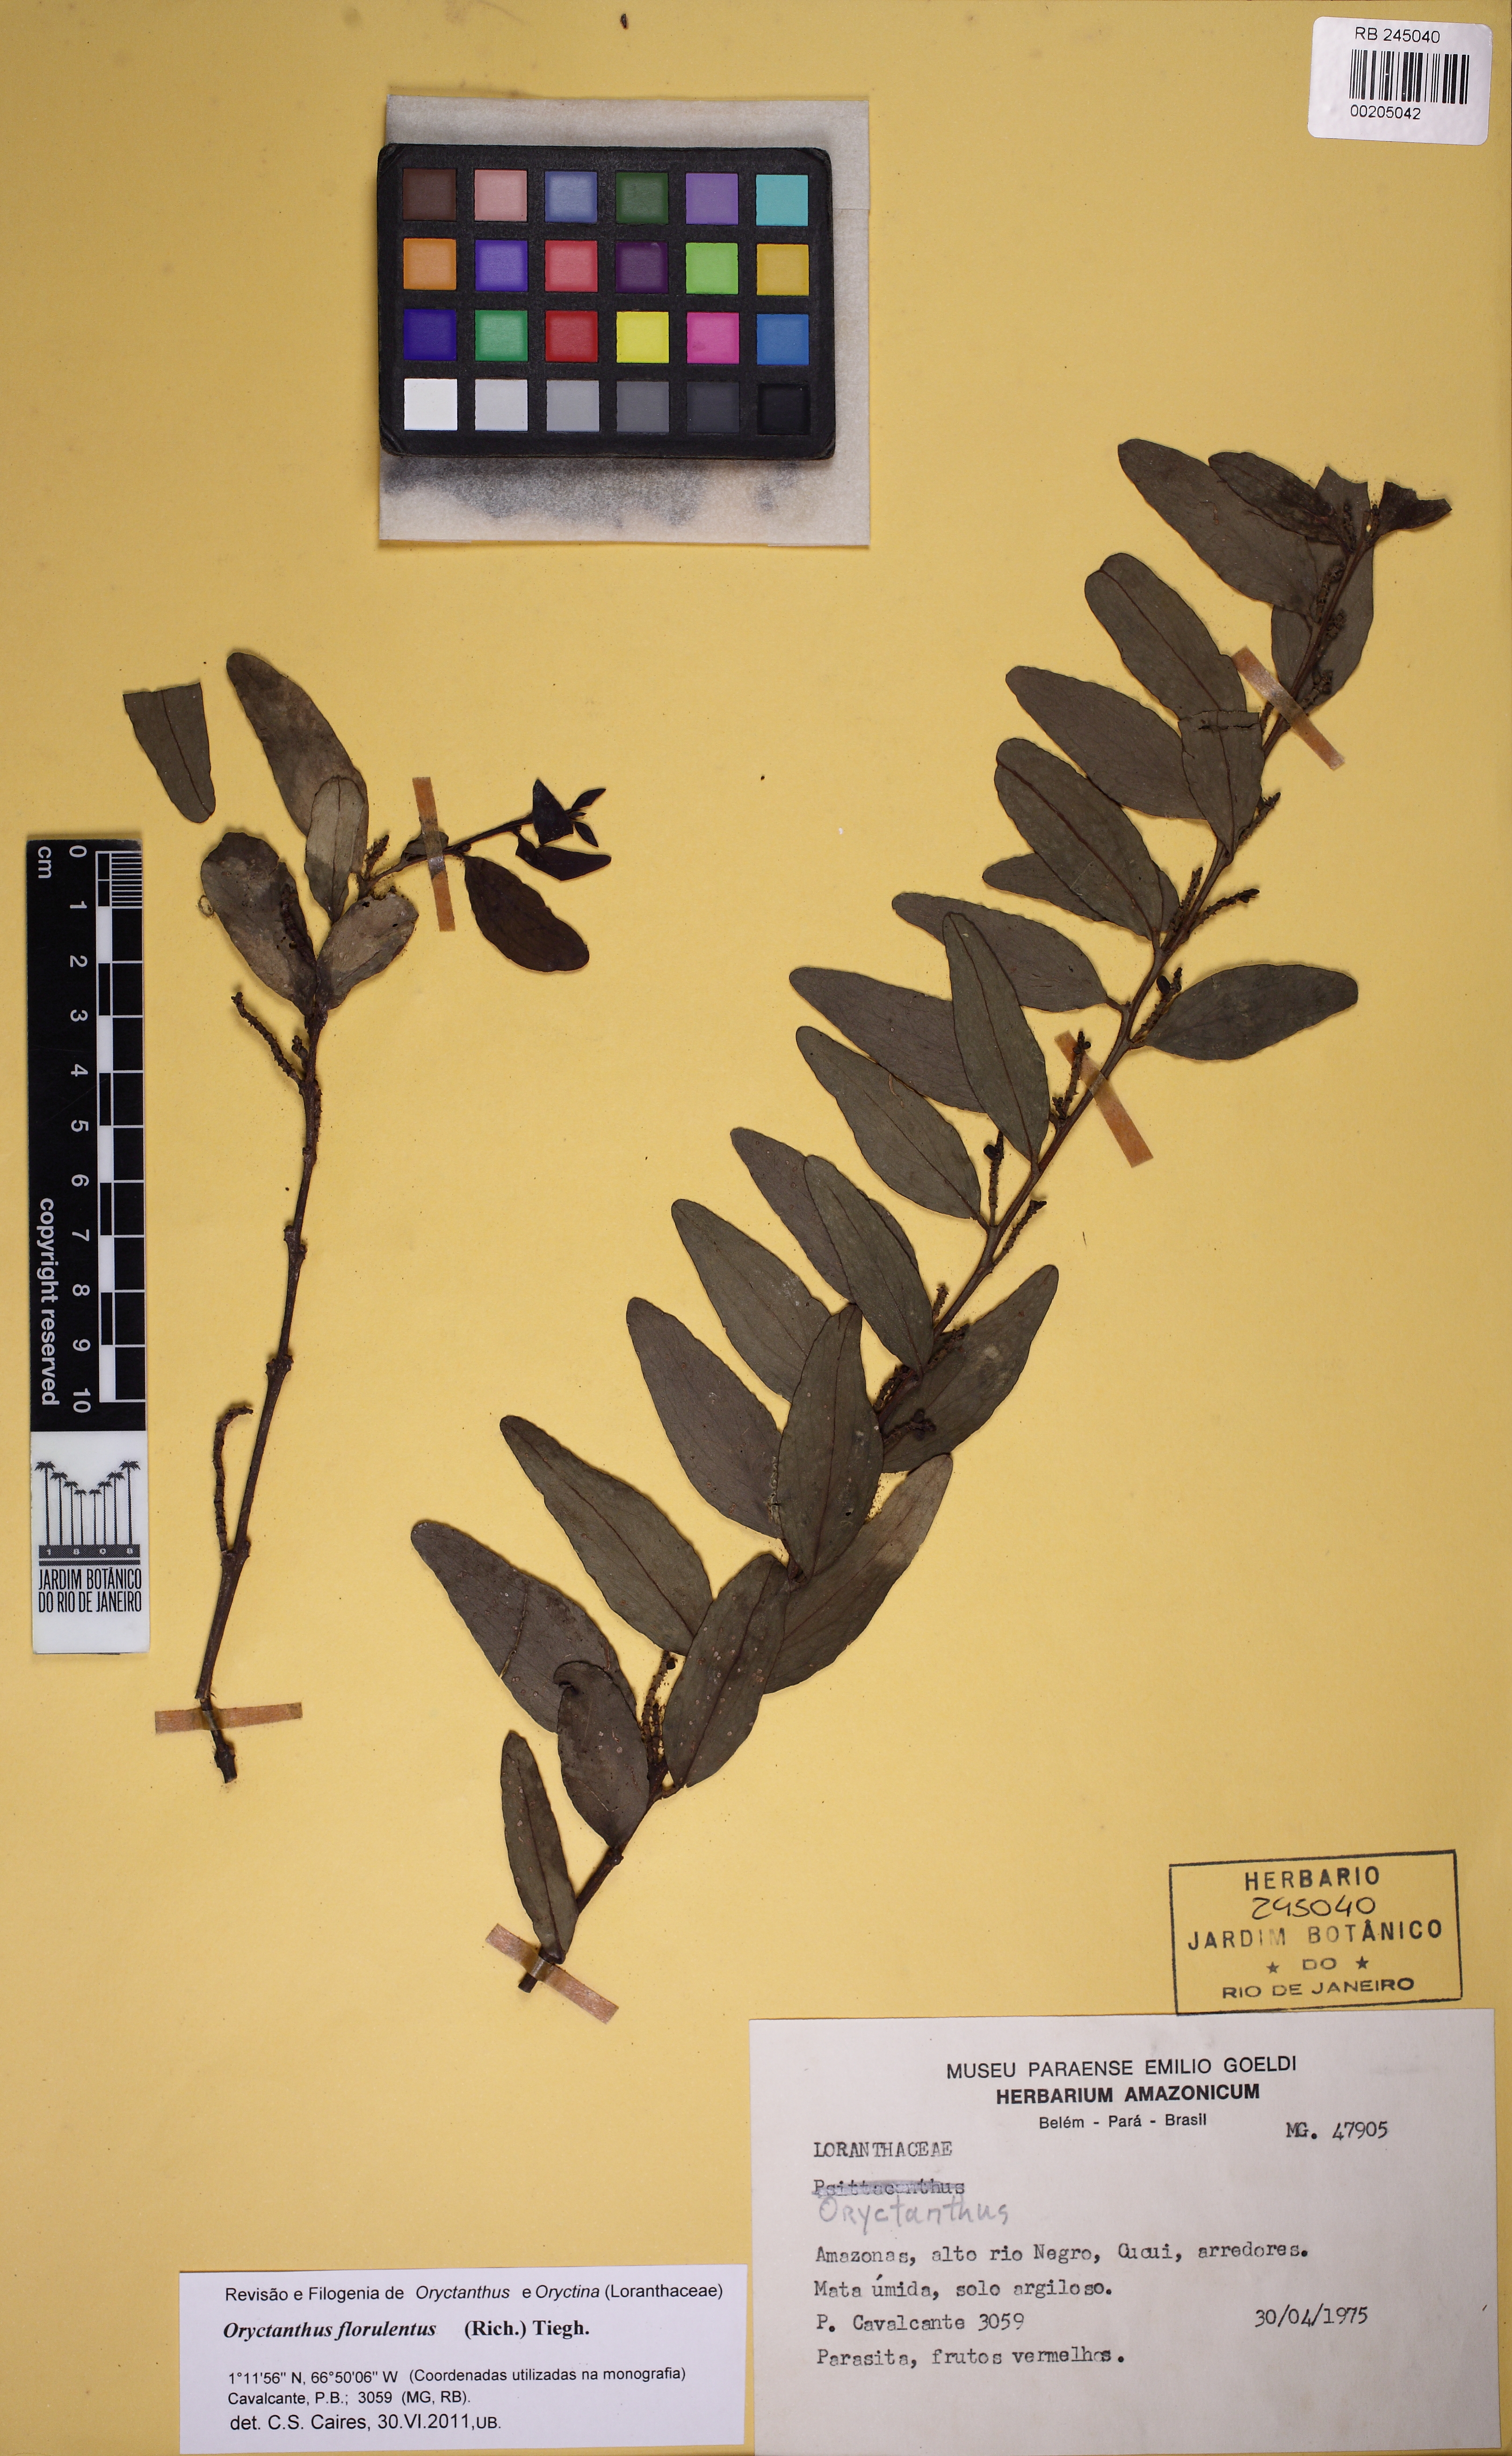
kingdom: Plantae
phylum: Tracheophyta
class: Magnoliopsida
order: Santalales
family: Loranthaceae
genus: Oryctanthus
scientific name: Oryctanthus florulentus
